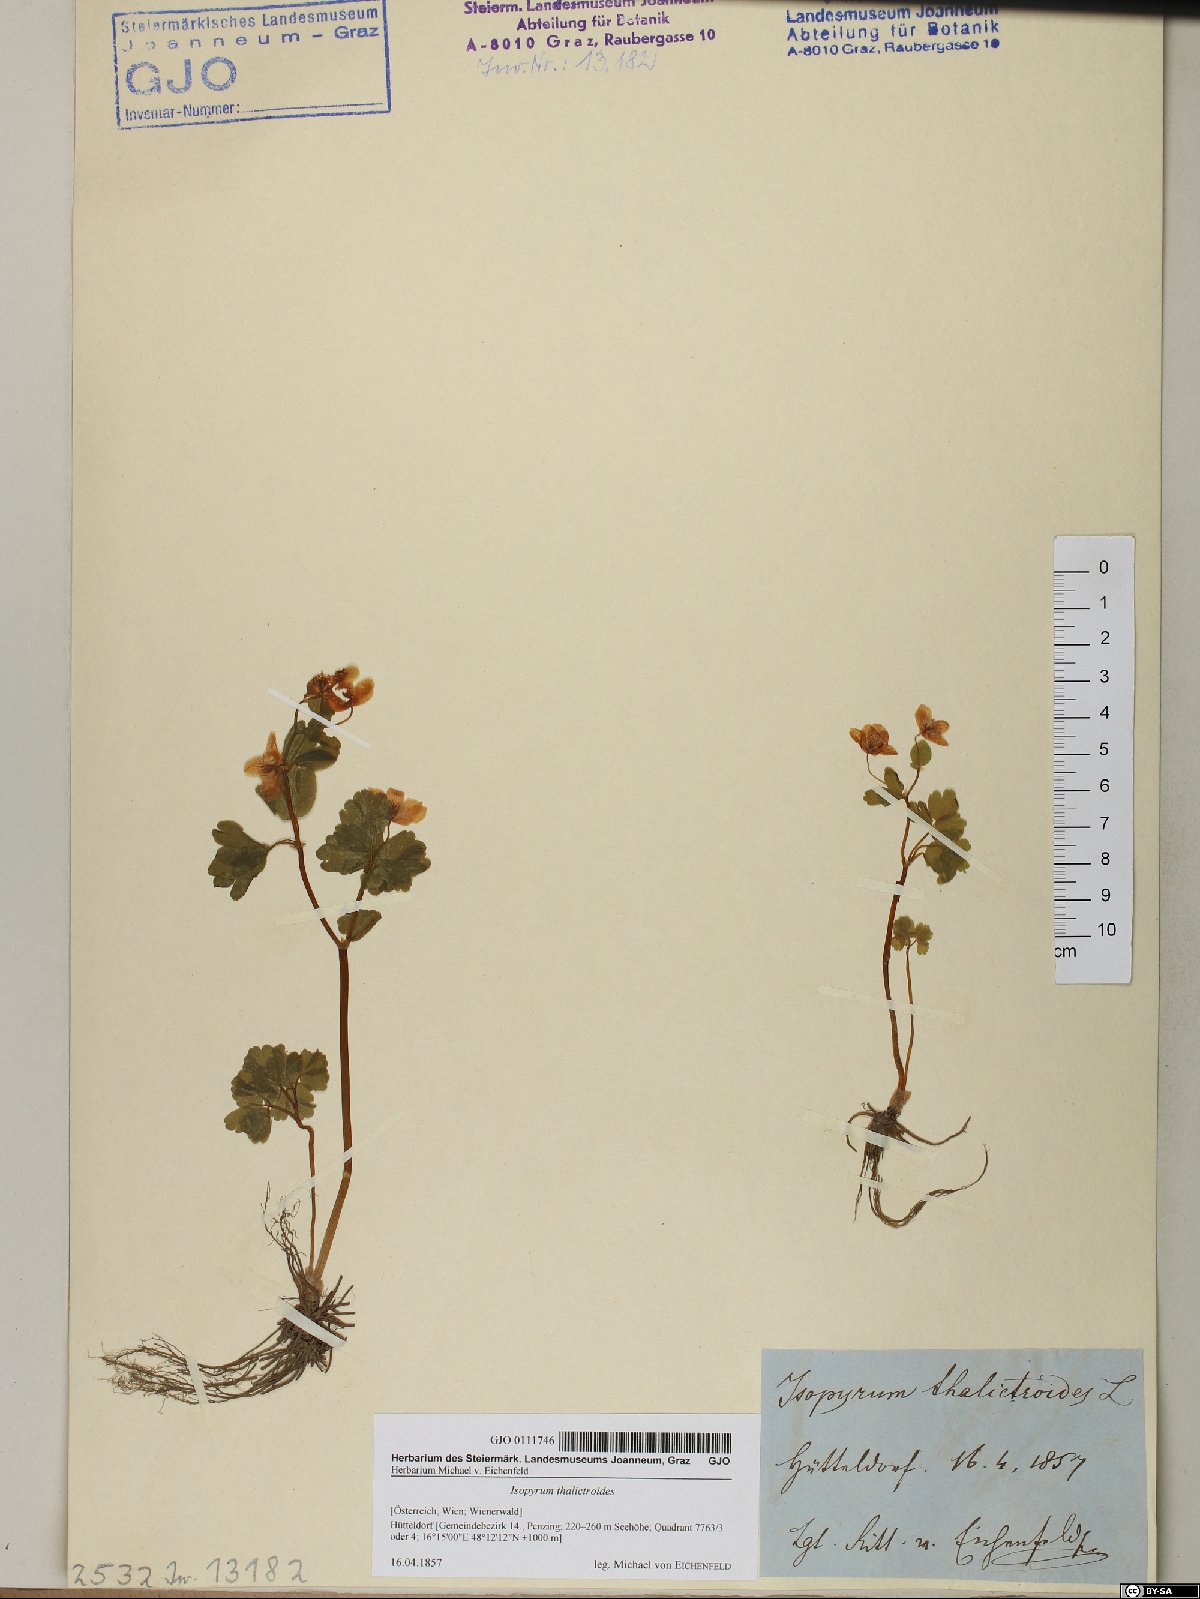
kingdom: Plantae
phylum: Tracheophyta
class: Magnoliopsida
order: Ranunculales
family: Ranunculaceae
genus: Isopyrum
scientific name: Isopyrum thalictroides
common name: Isopyrum
